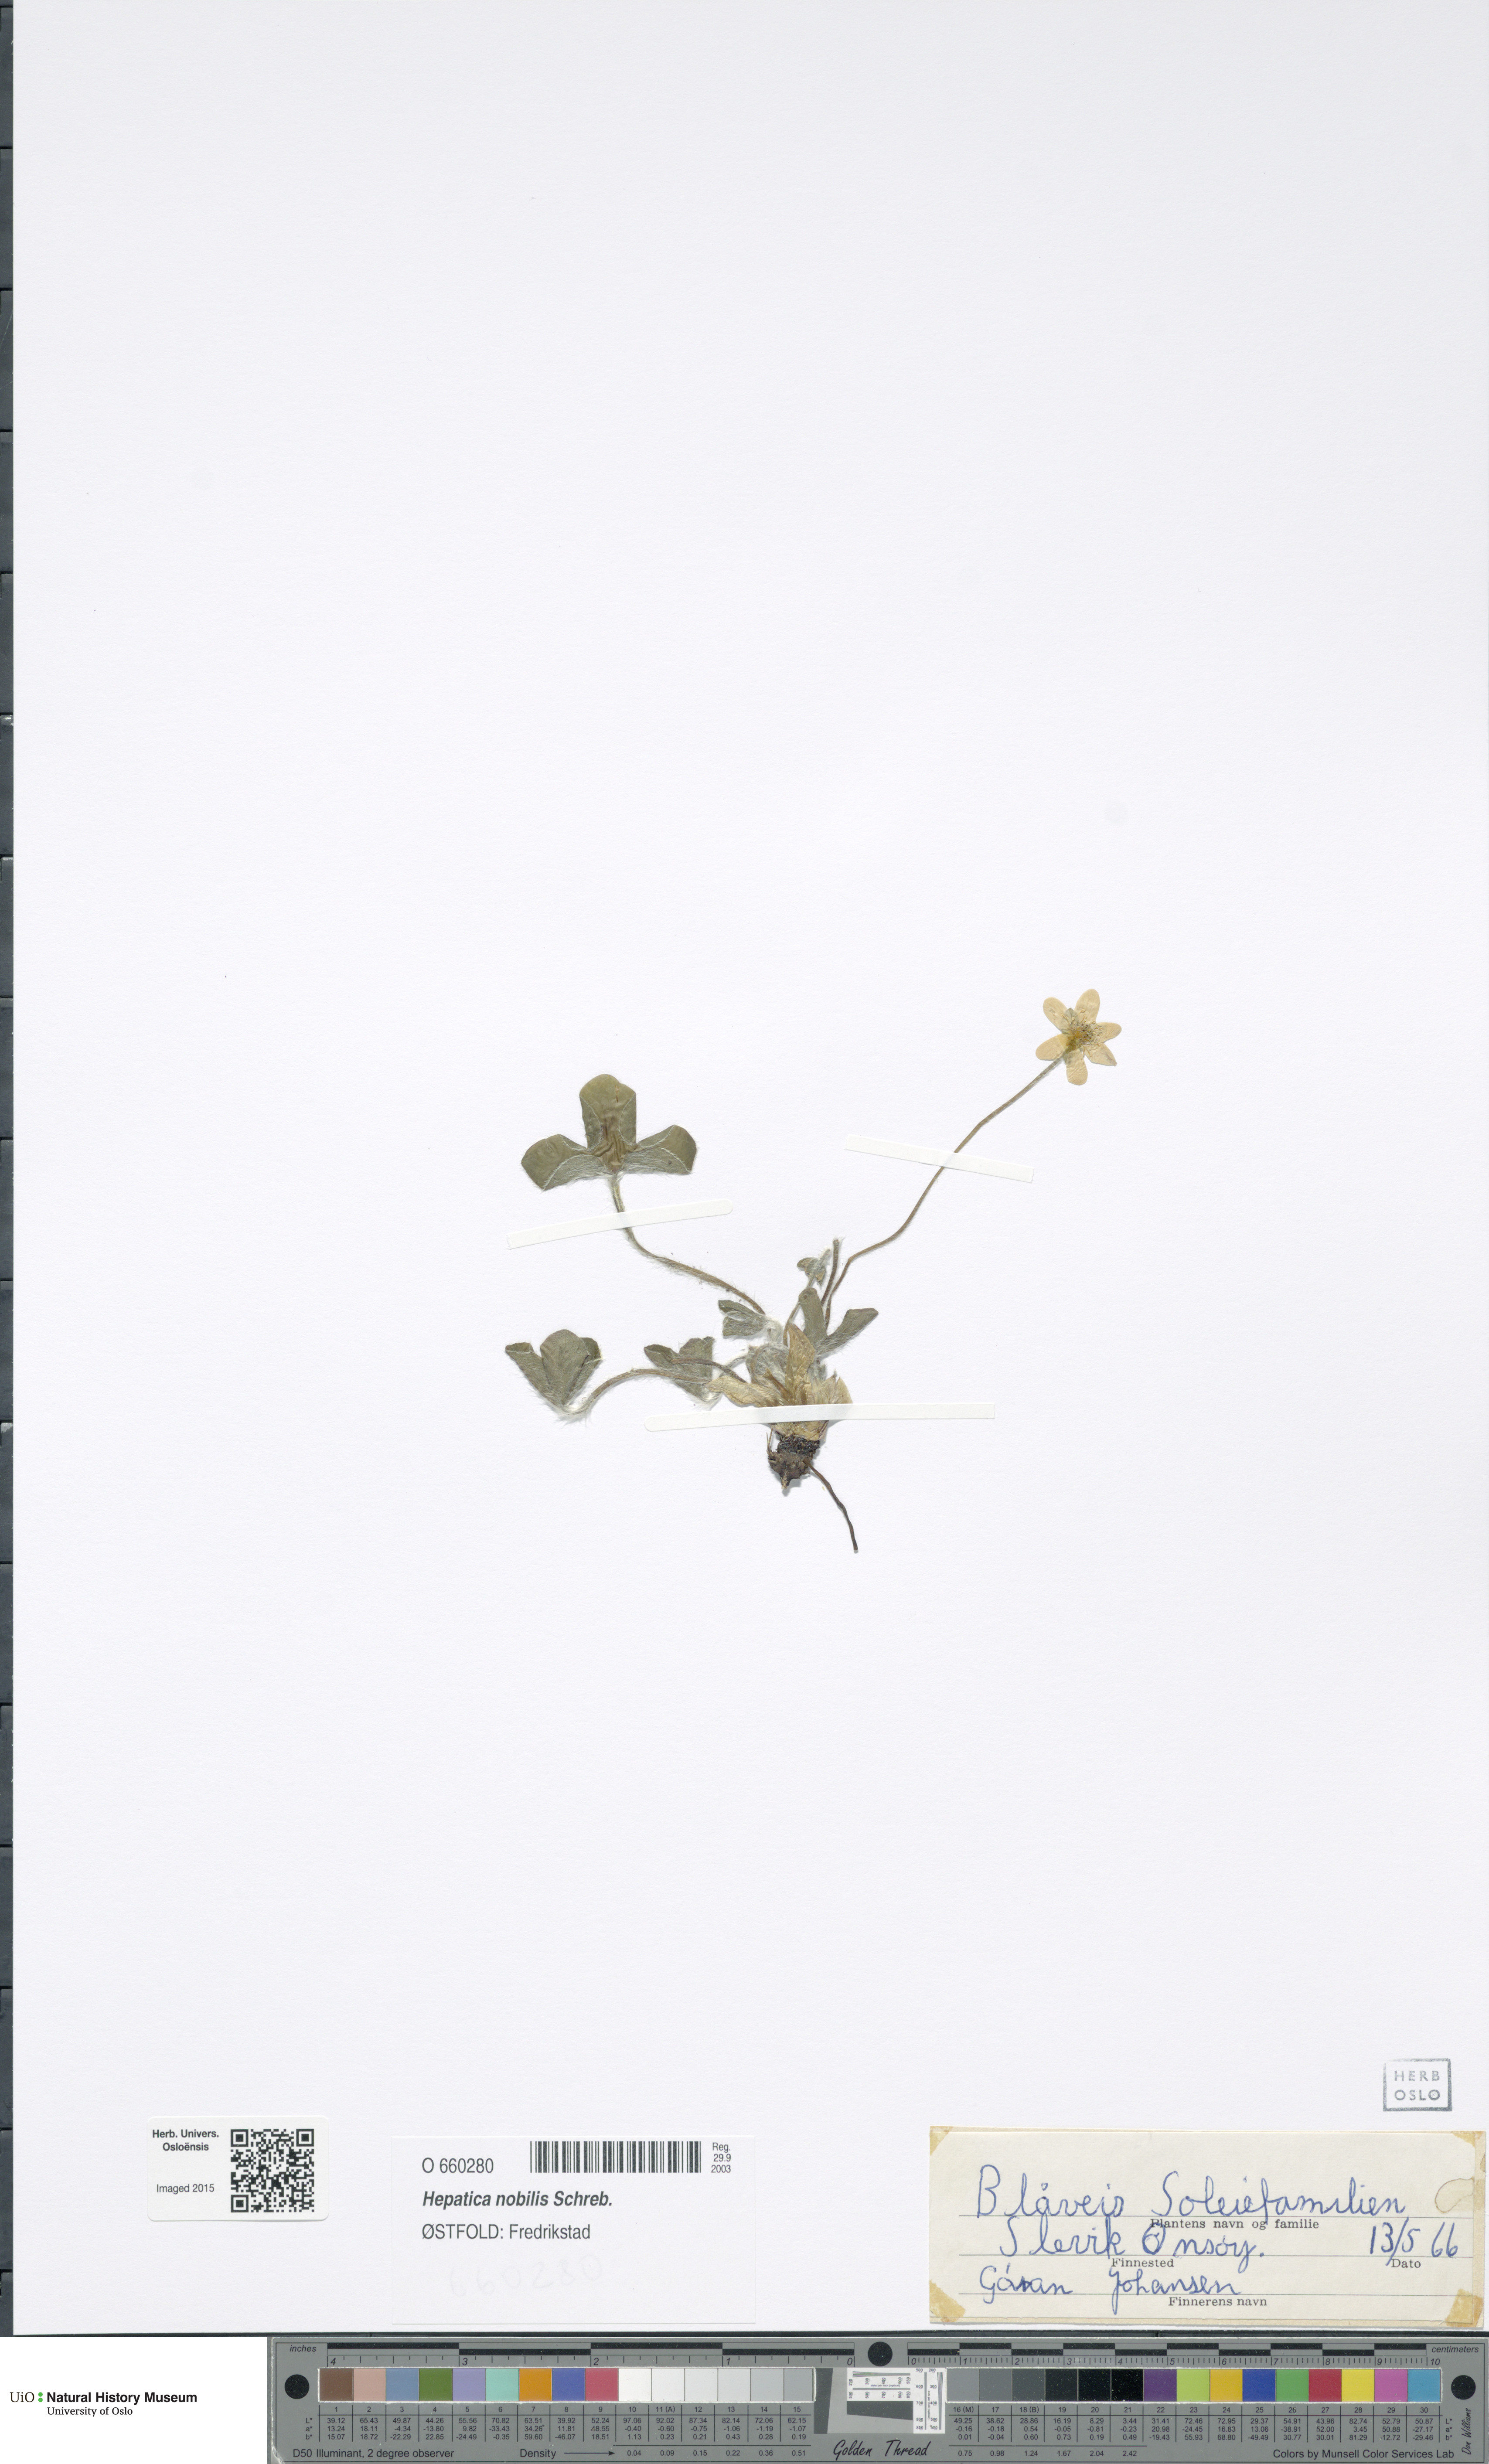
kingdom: Plantae
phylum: Tracheophyta
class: Magnoliopsida
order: Ranunculales
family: Ranunculaceae
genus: Hepatica
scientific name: Hepatica nobilis
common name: Liverleaf
